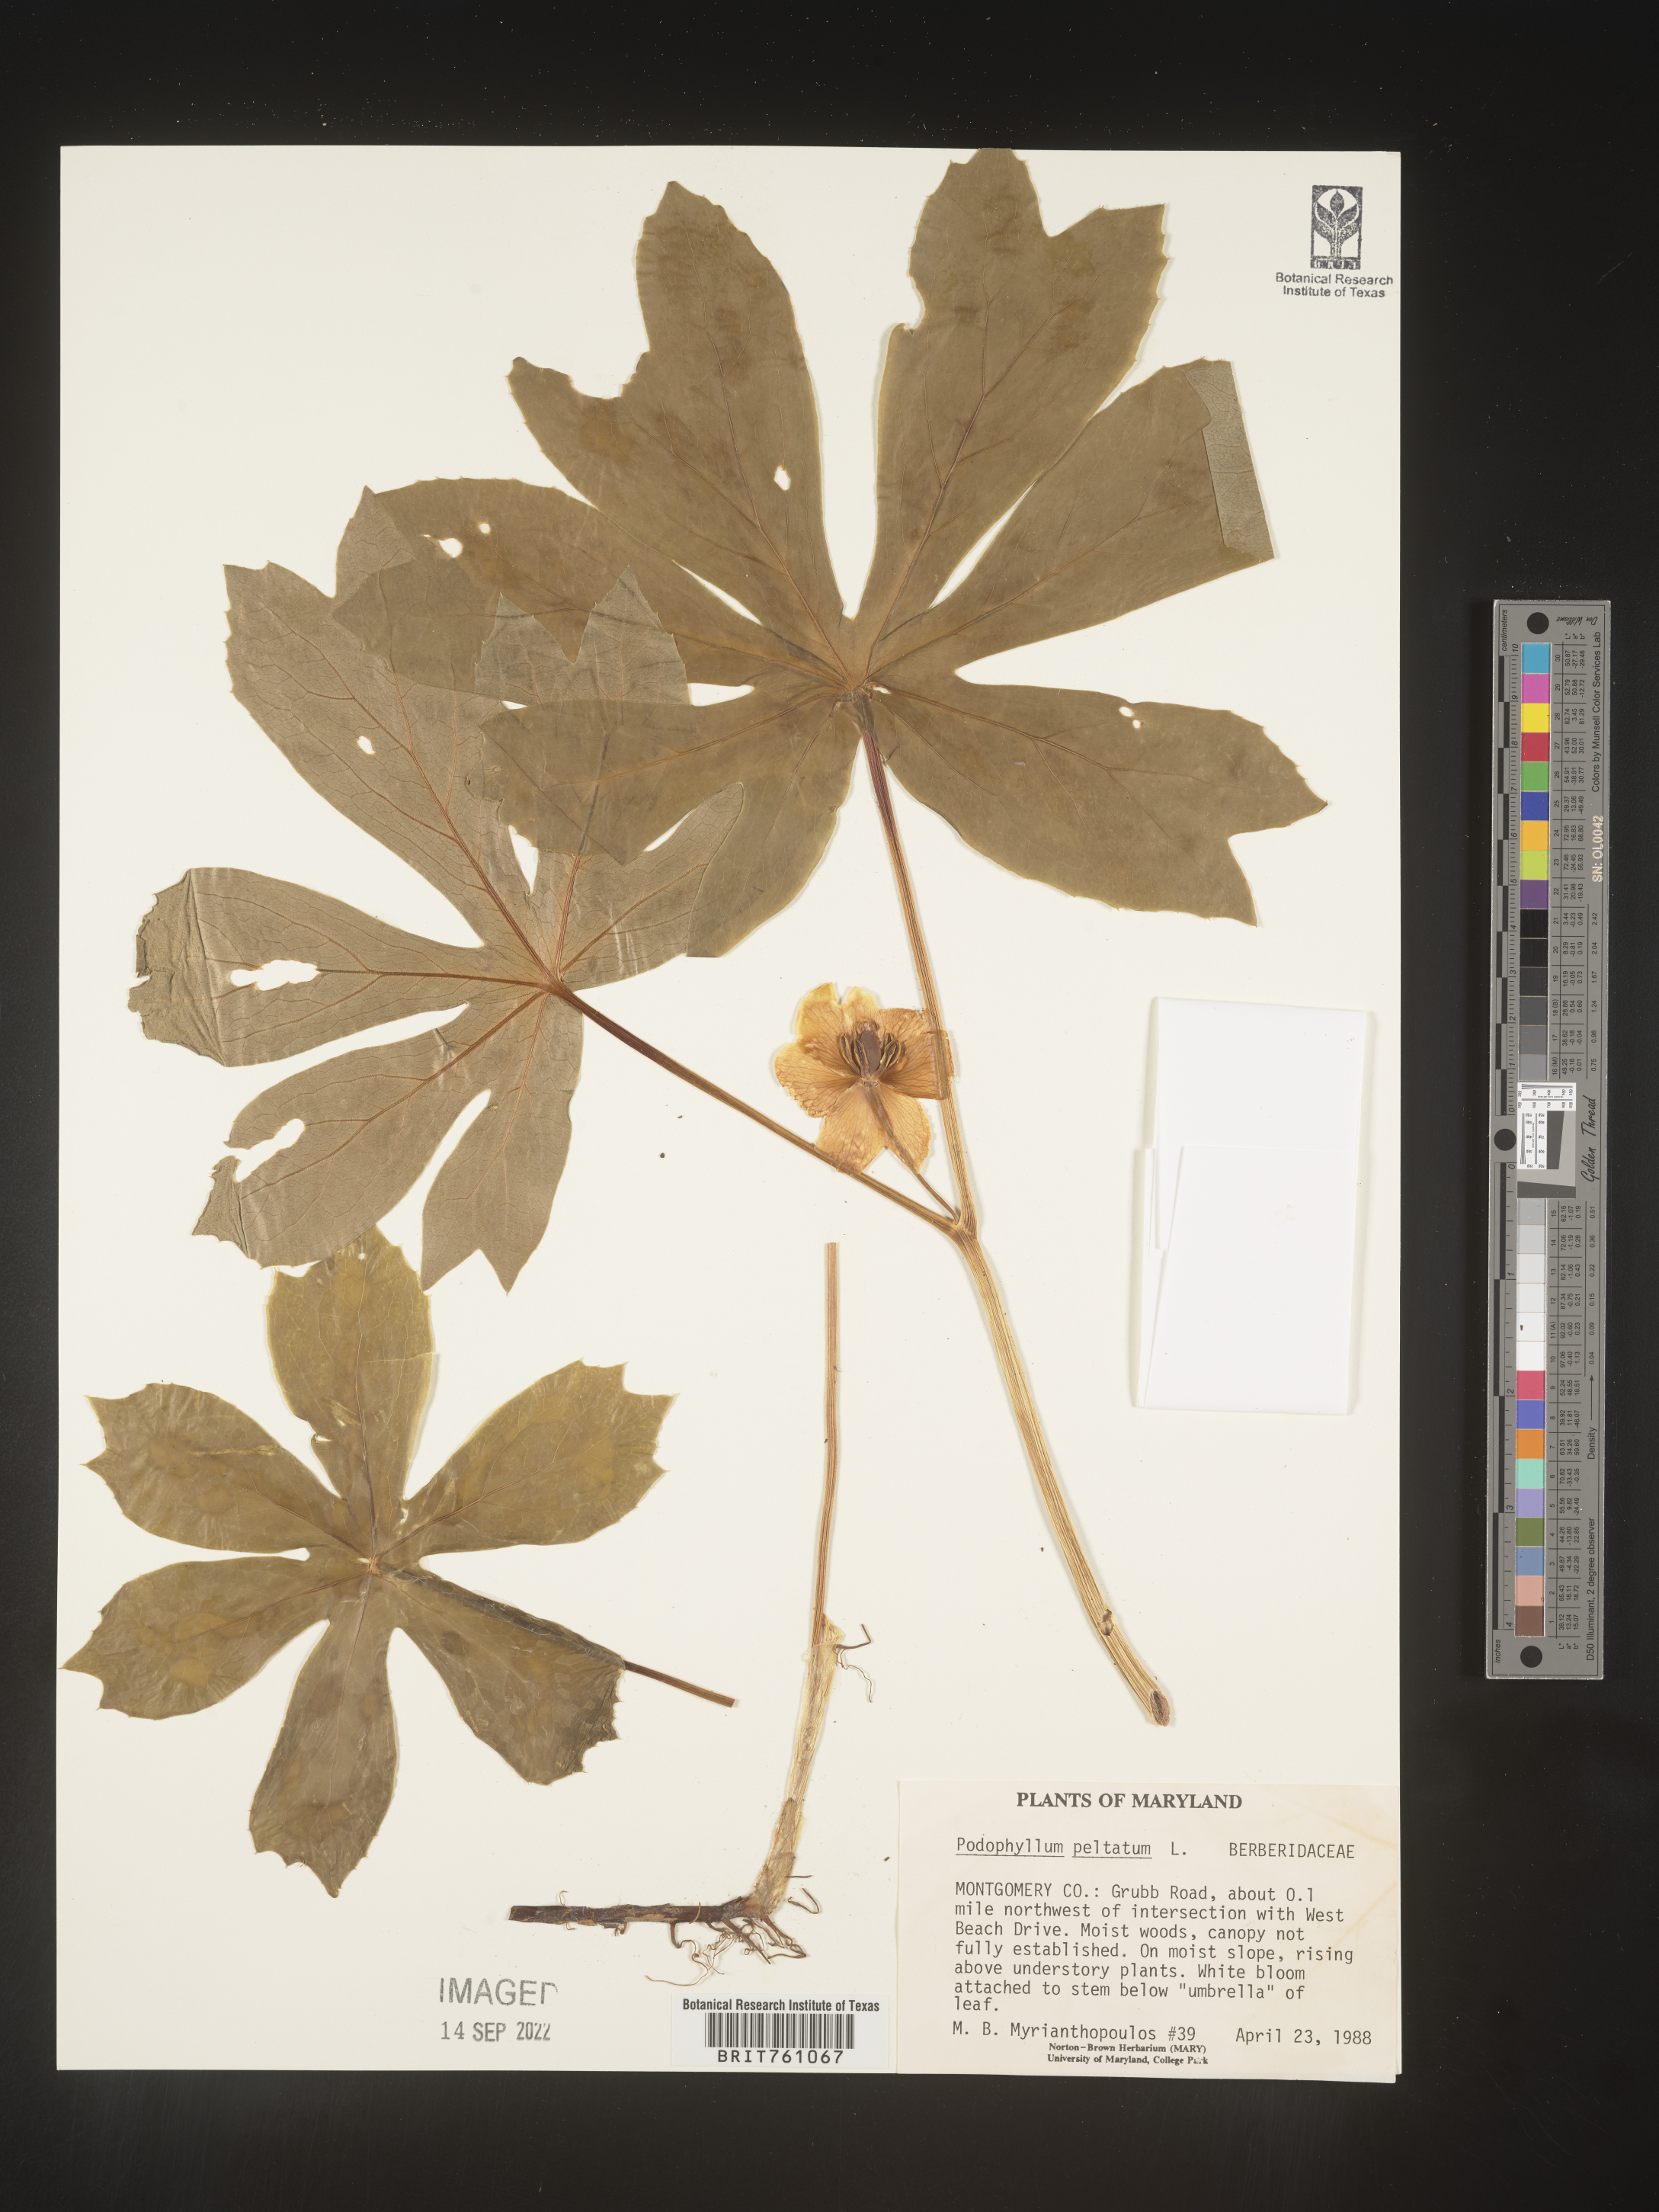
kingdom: Plantae
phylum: Tracheophyta
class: Magnoliopsida
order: Ranunculales
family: Berberidaceae
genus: Podophyllum
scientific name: Podophyllum peltatum
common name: Wild mandrake
